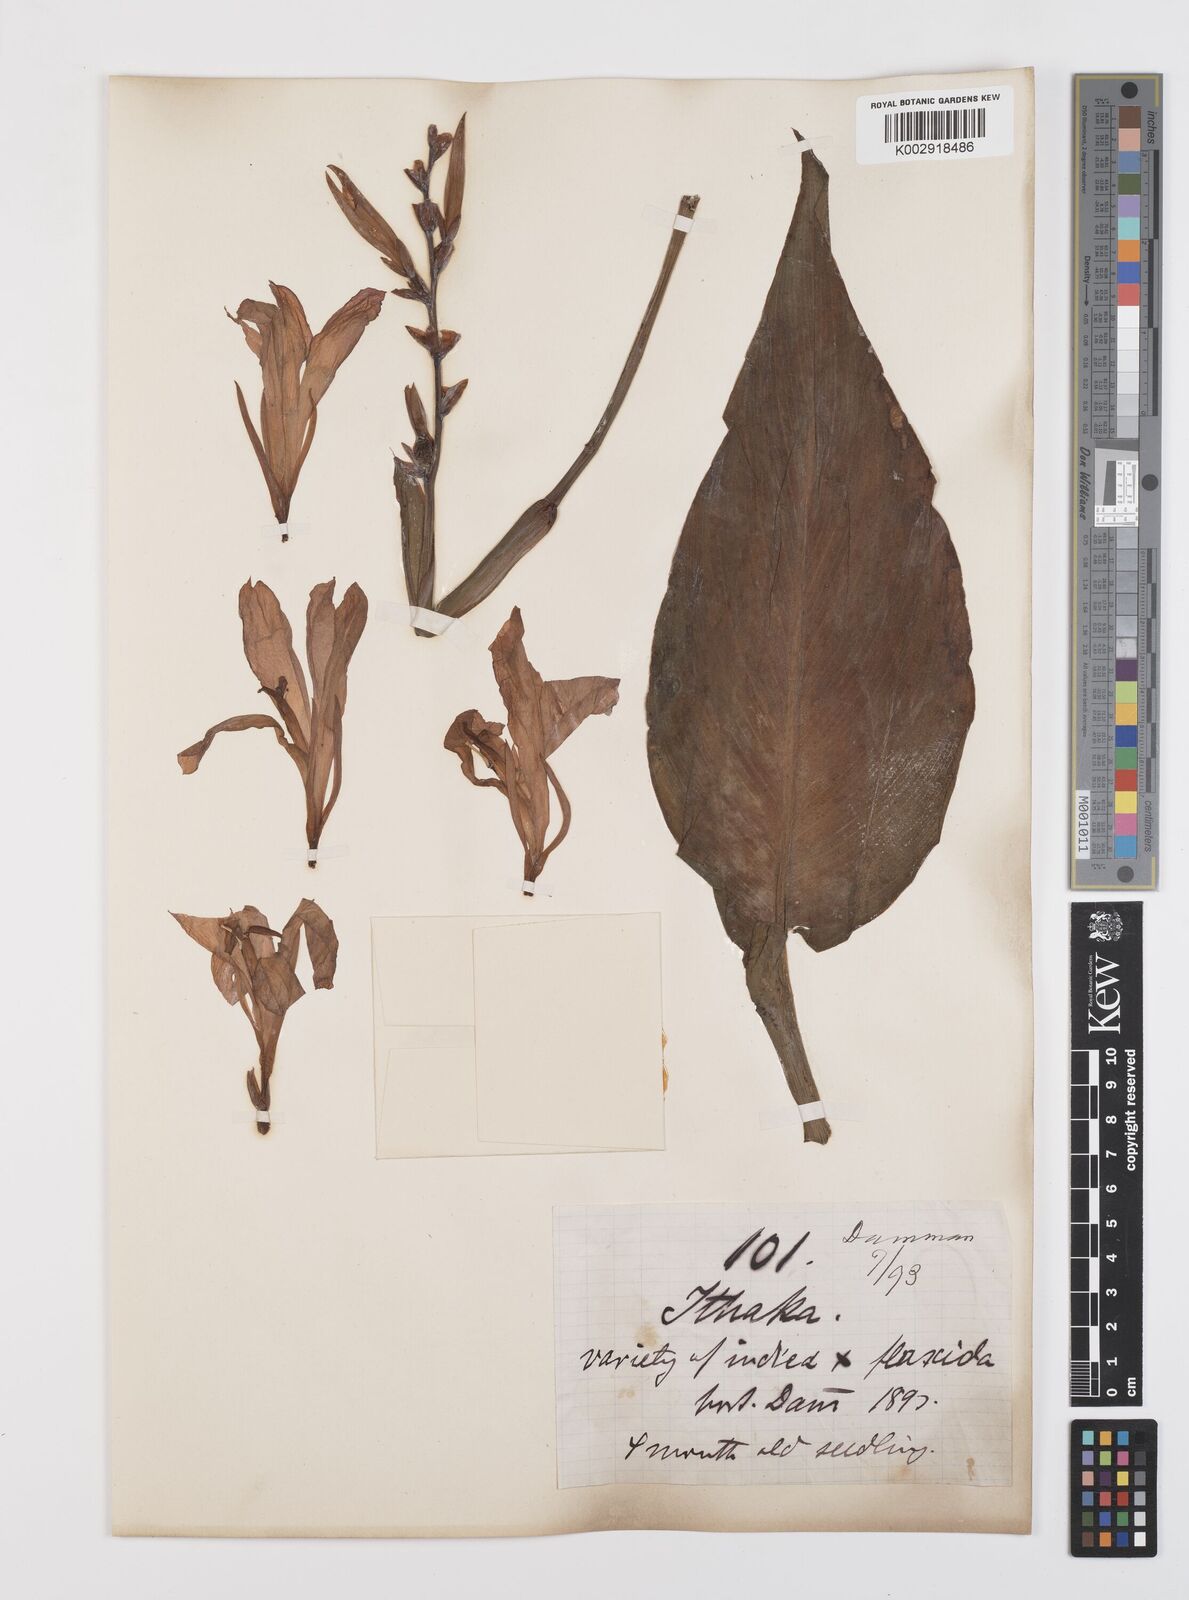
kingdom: Plantae
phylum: Tracheophyta
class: Liliopsida
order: Zingiberales
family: Cannaceae
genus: Canna
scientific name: Canna indica
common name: Indian shot
